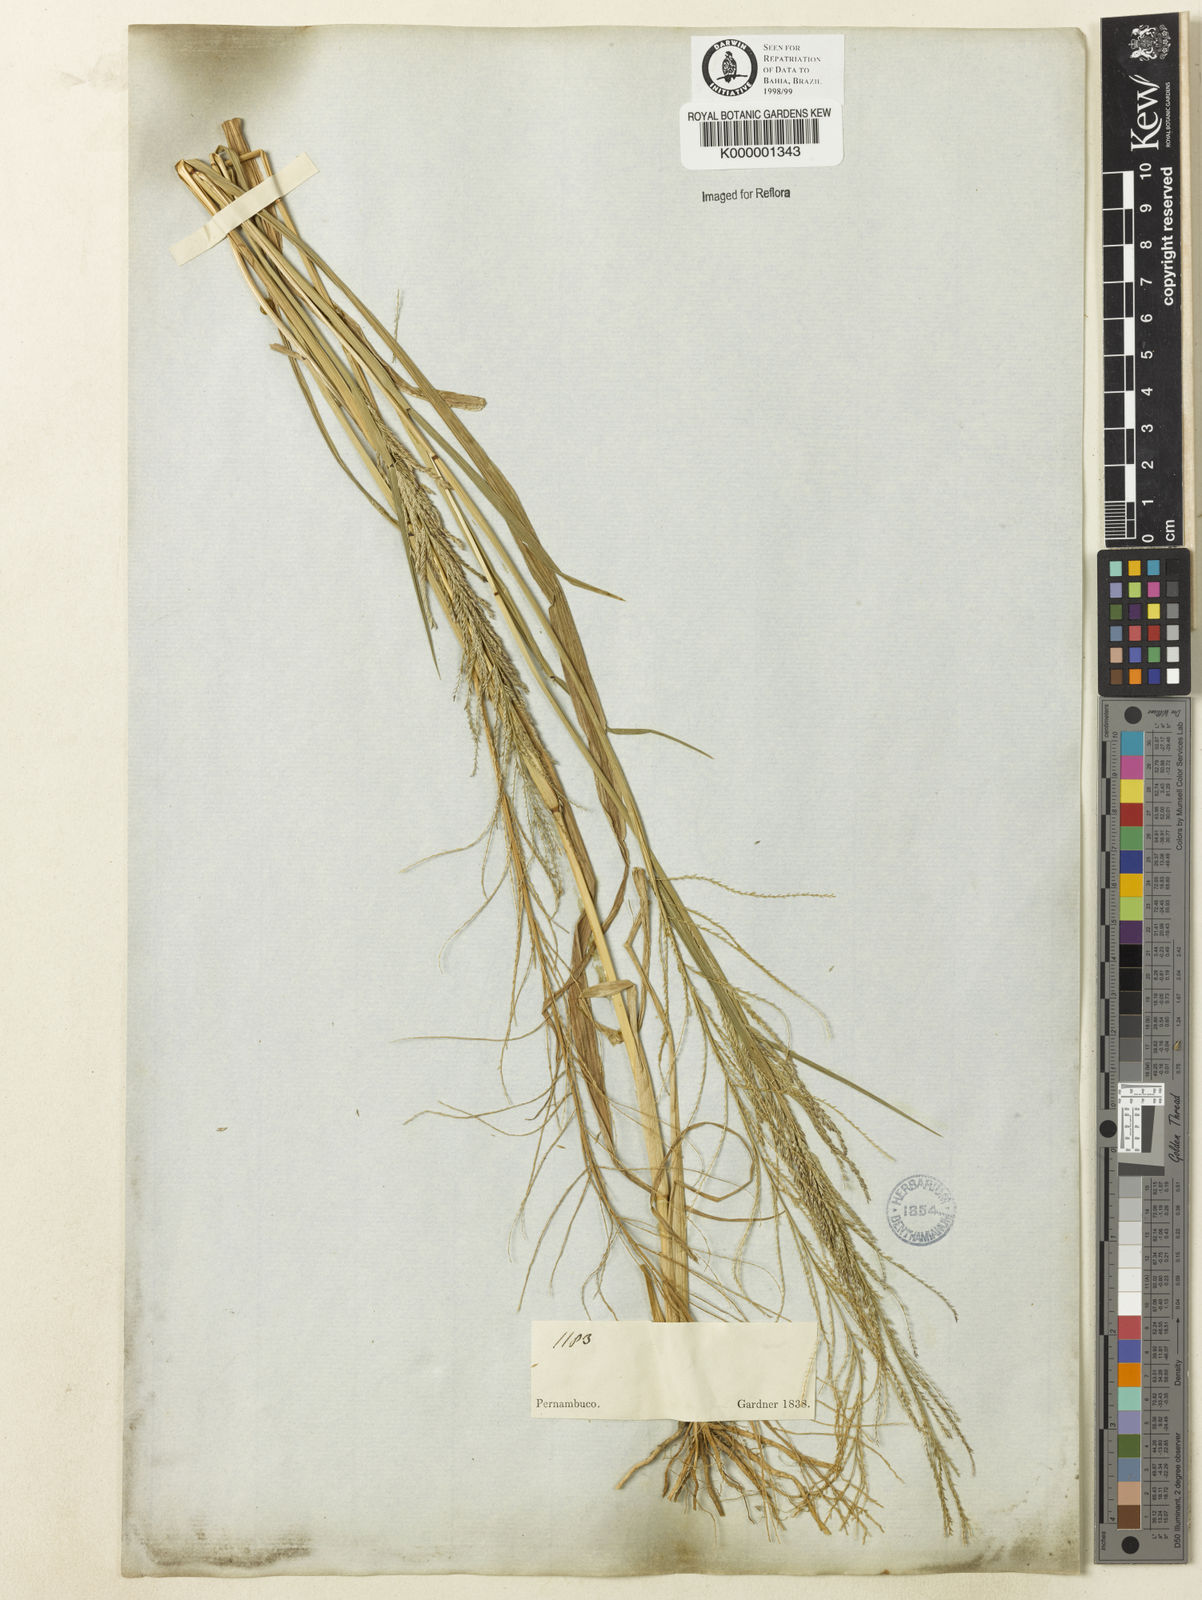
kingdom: Plantae
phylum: Tracheophyta
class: Liliopsida
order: Poales
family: Poaceae
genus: Leptochloa
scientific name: Leptochloa
